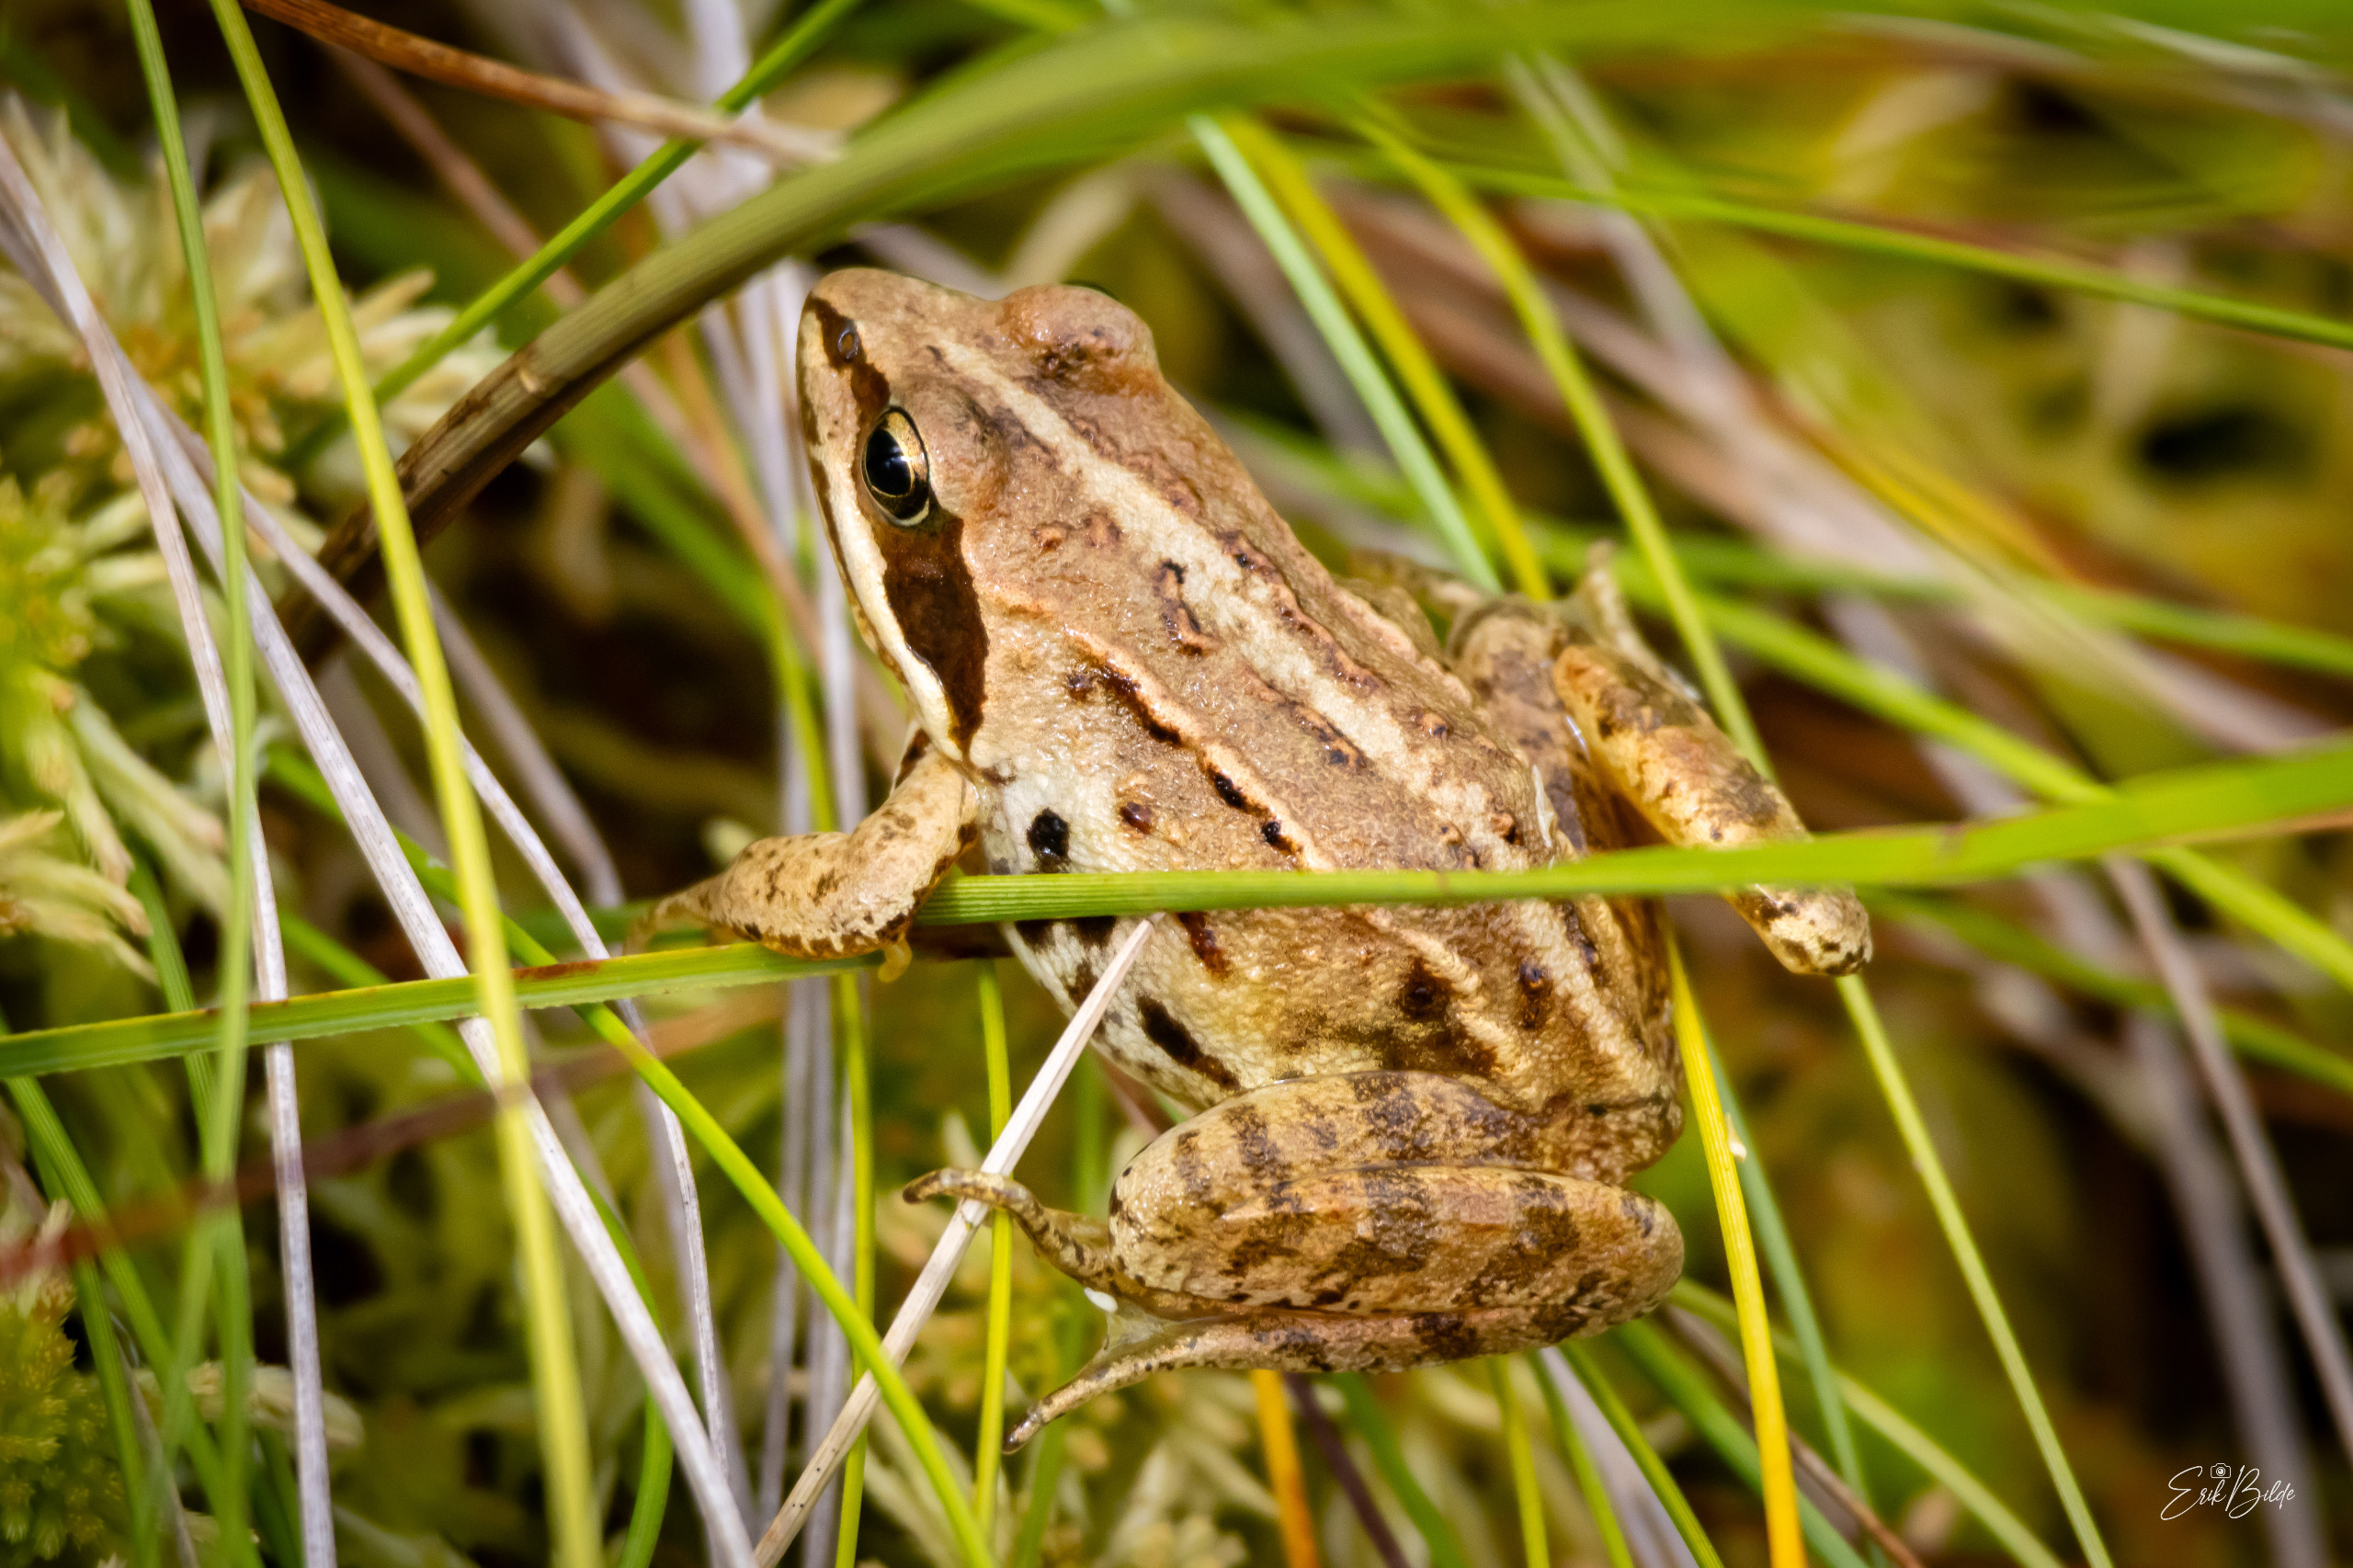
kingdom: Animalia
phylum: Chordata
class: Amphibia
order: Anura
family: Ranidae
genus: Rana
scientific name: Rana arvalis
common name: Spidssnudet frø
